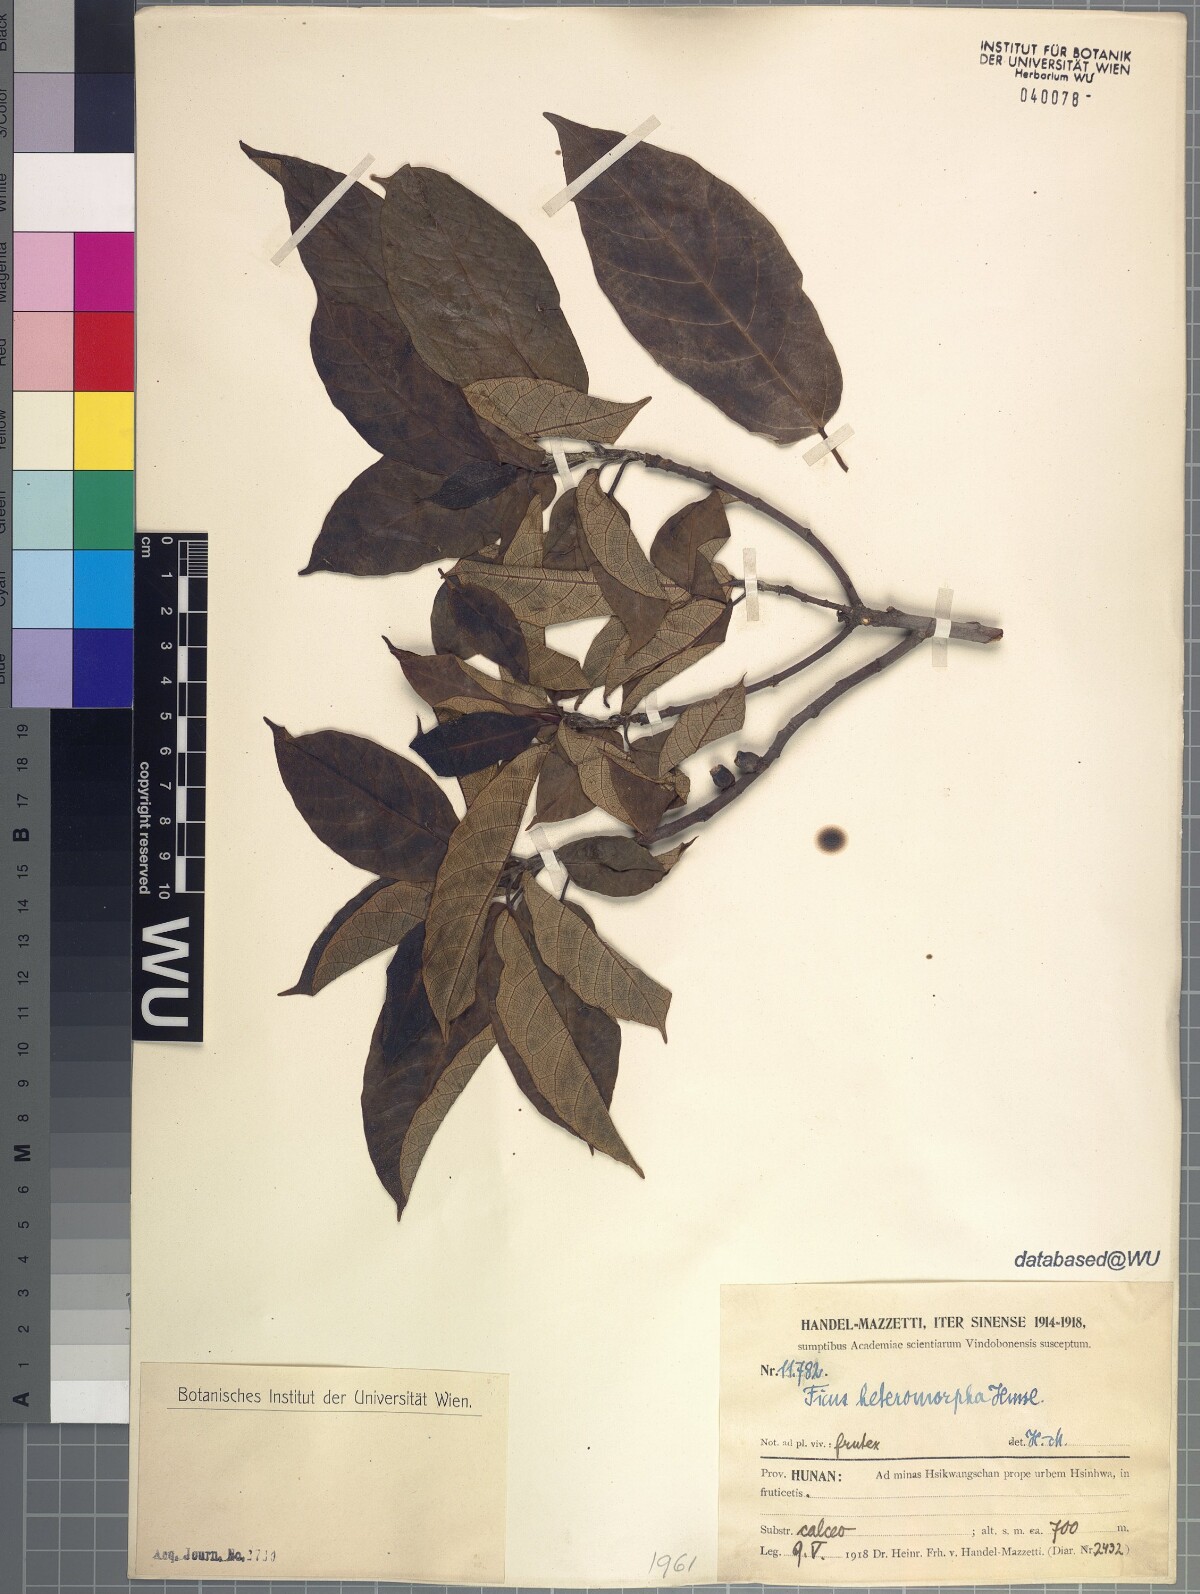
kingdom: Plantae
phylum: Tracheophyta
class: Magnoliopsida
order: Rosales
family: Moraceae
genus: Ficus
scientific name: Ficus heteromorpha
